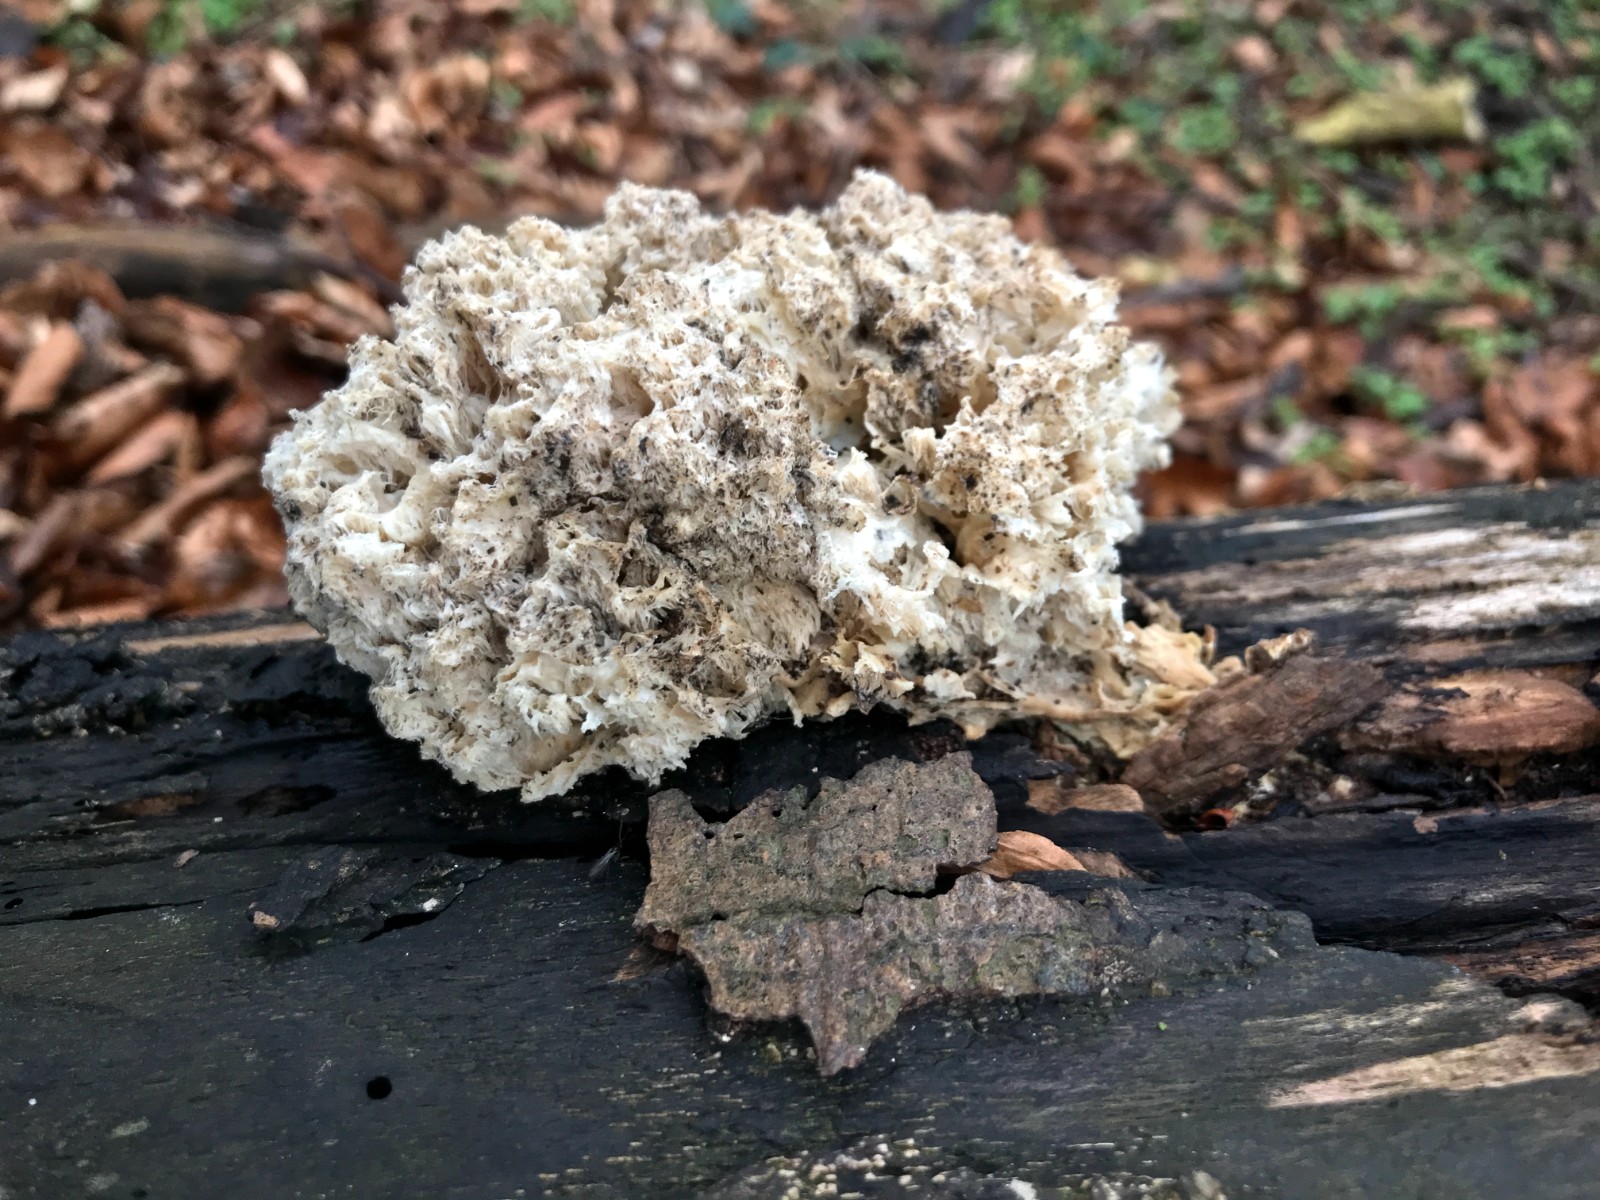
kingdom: Fungi
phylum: Basidiomycota
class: Agaricomycetes
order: Russulales
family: Hericiaceae
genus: Hericium
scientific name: Hericium coralloides
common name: koralpigsvamp
